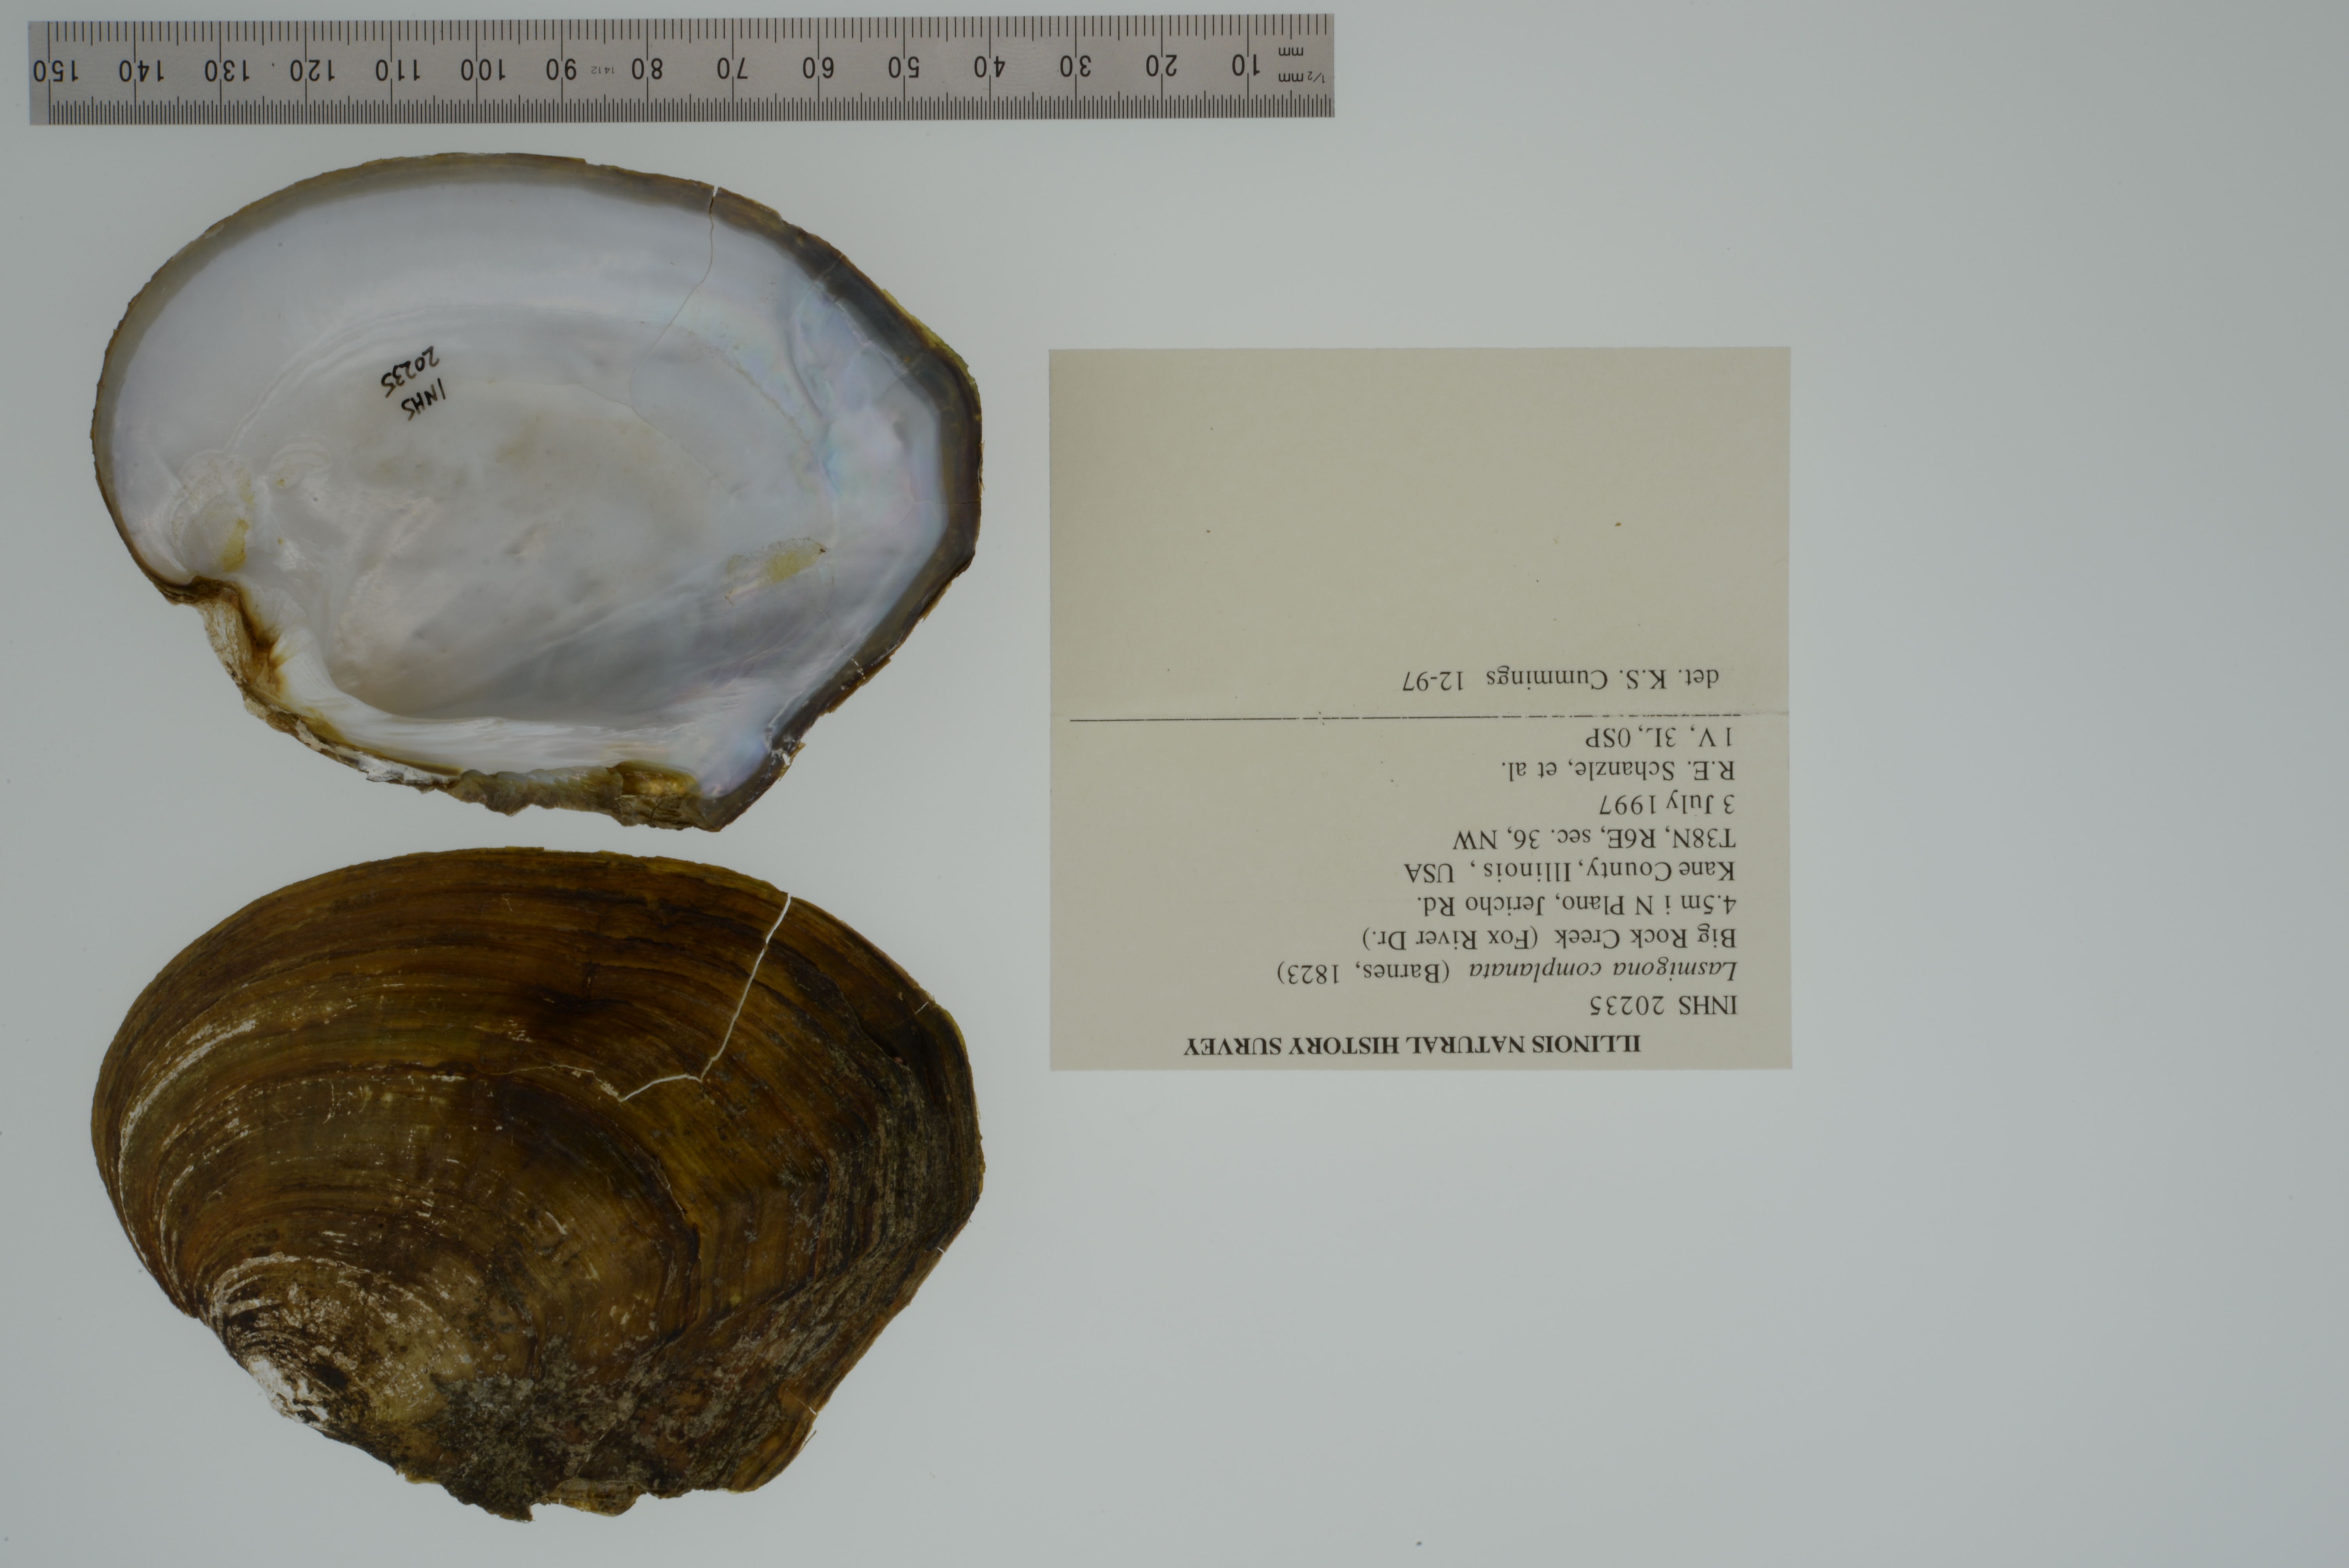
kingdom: Animalia
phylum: Mollusca
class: Bivalvia
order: Unionida
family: Unionidae
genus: Lasmigona
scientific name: Lasmigona complanata
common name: White heelsplitter
